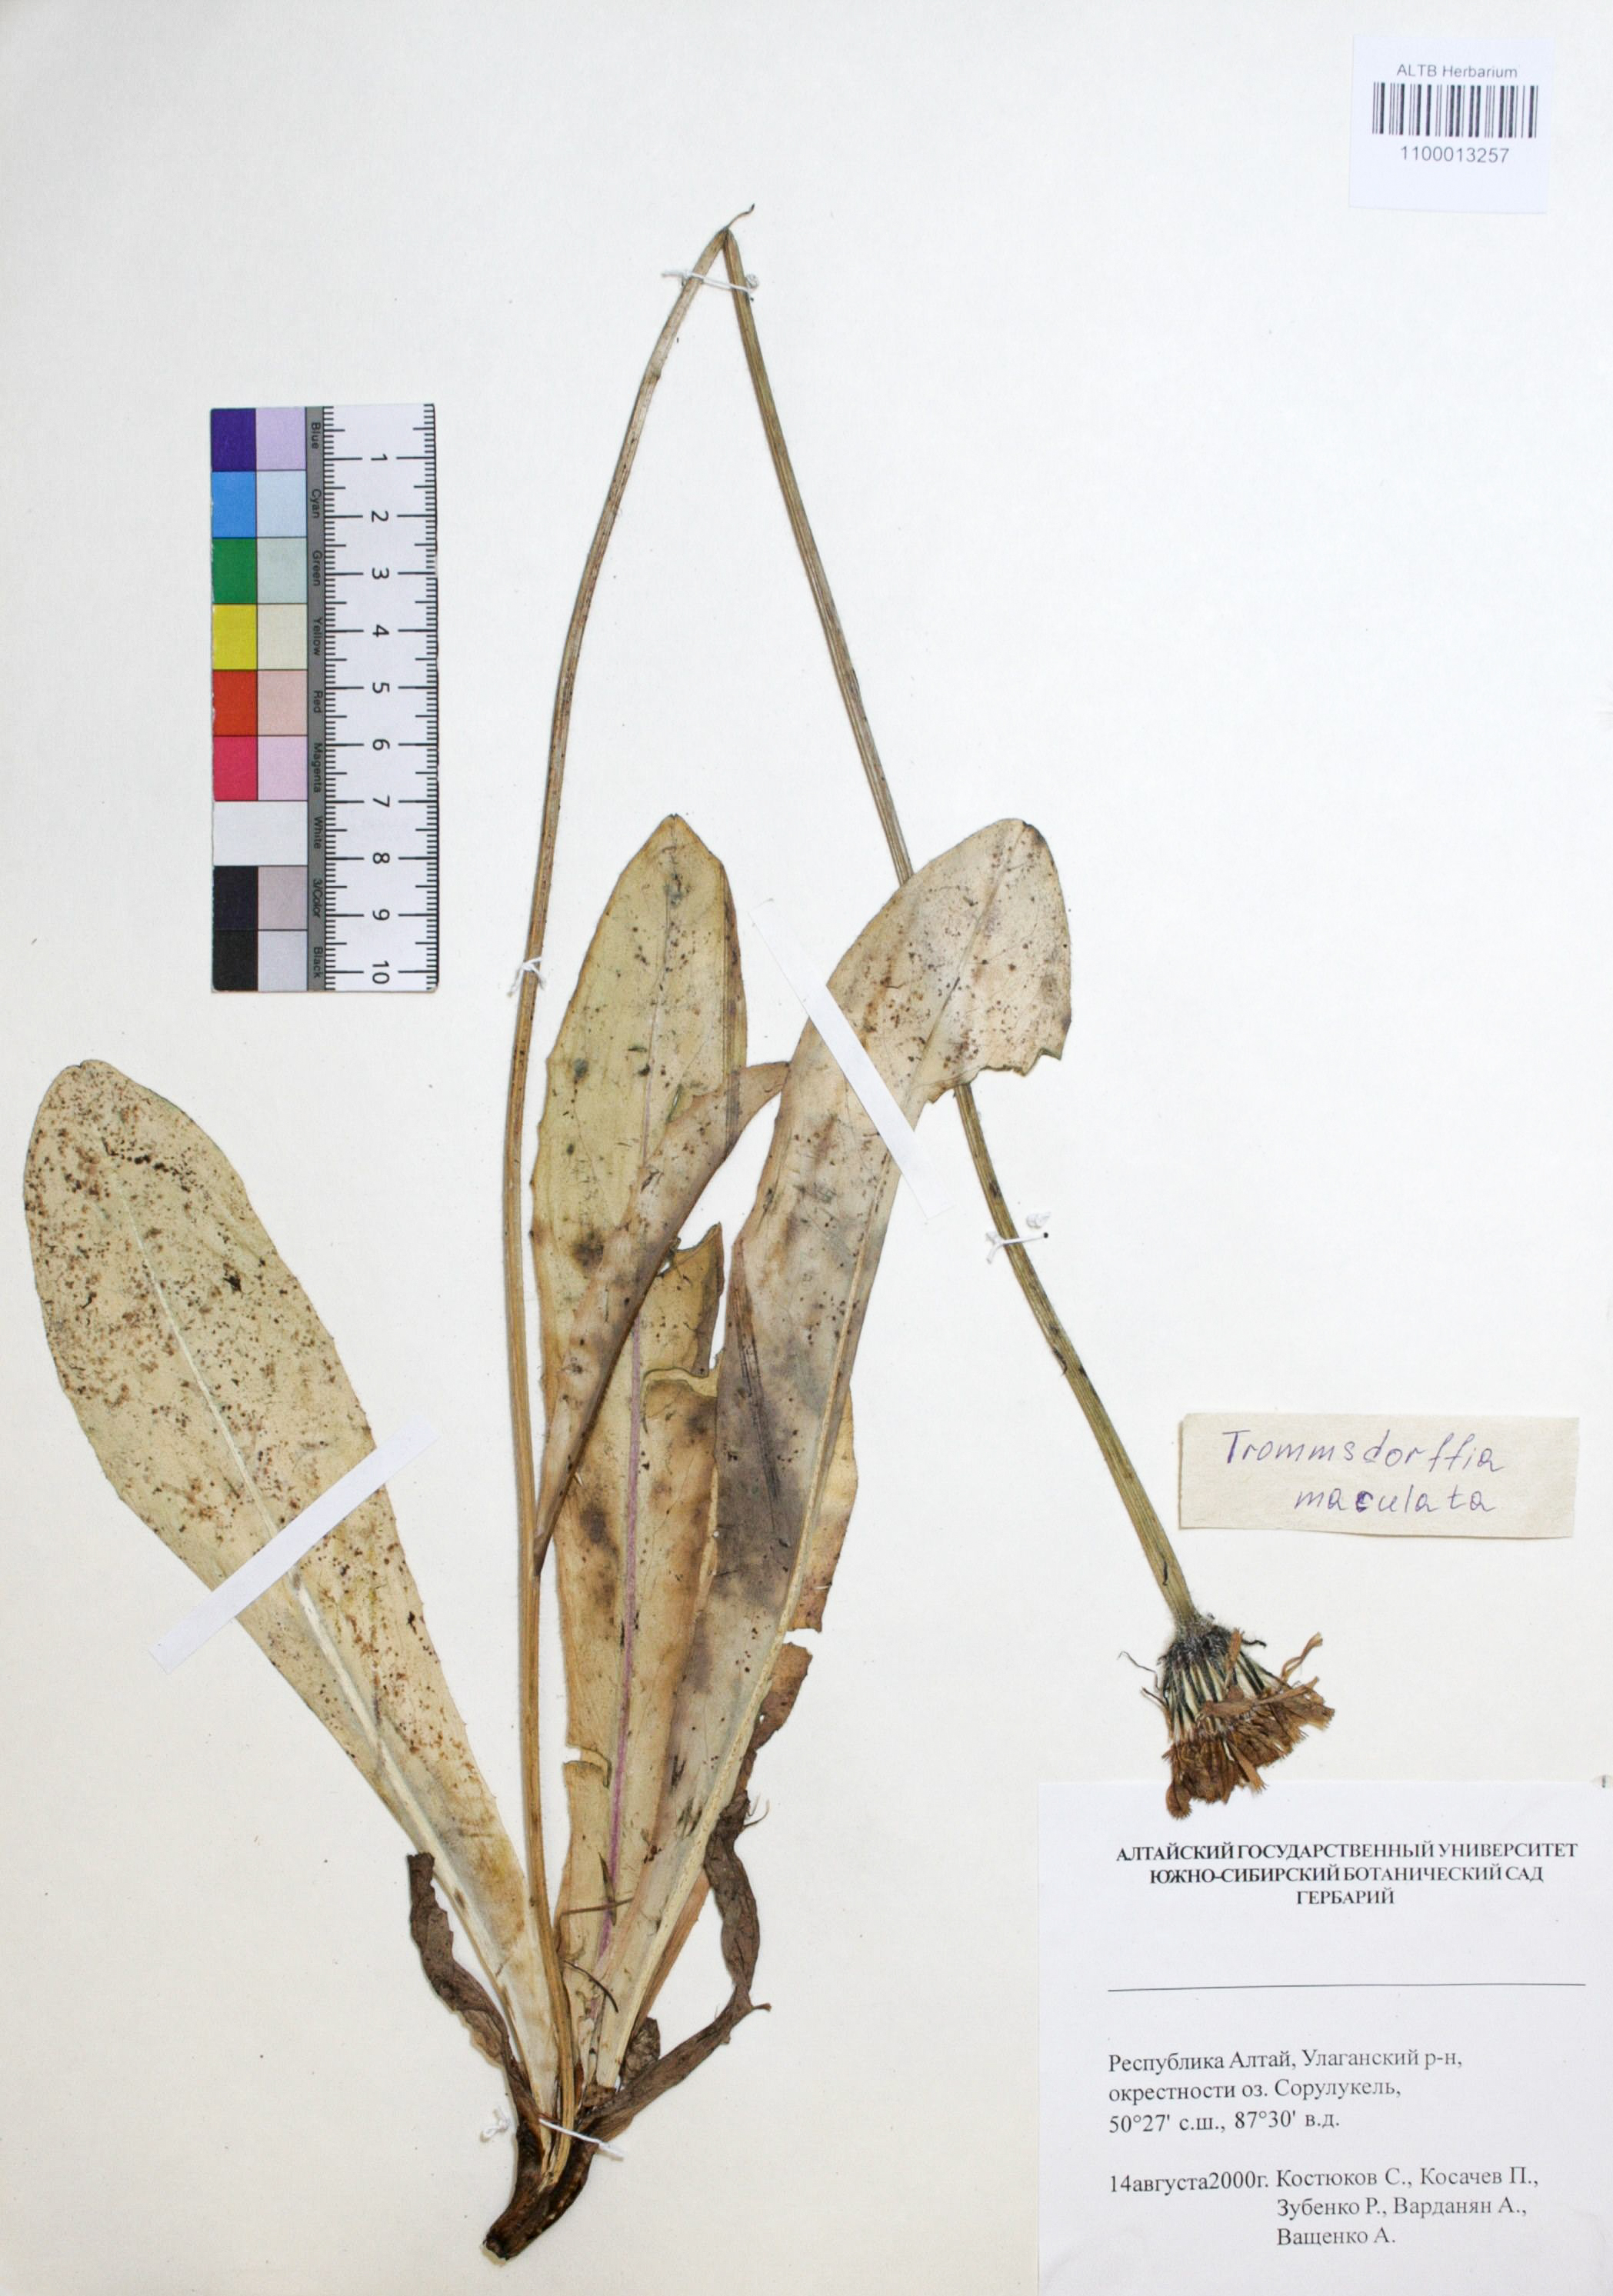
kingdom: Plantae
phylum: Tracheophyta
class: Magnoliopsida
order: Asterales
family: Asteraceae
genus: Trommsdorffia
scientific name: Trommsdorffia maculata
